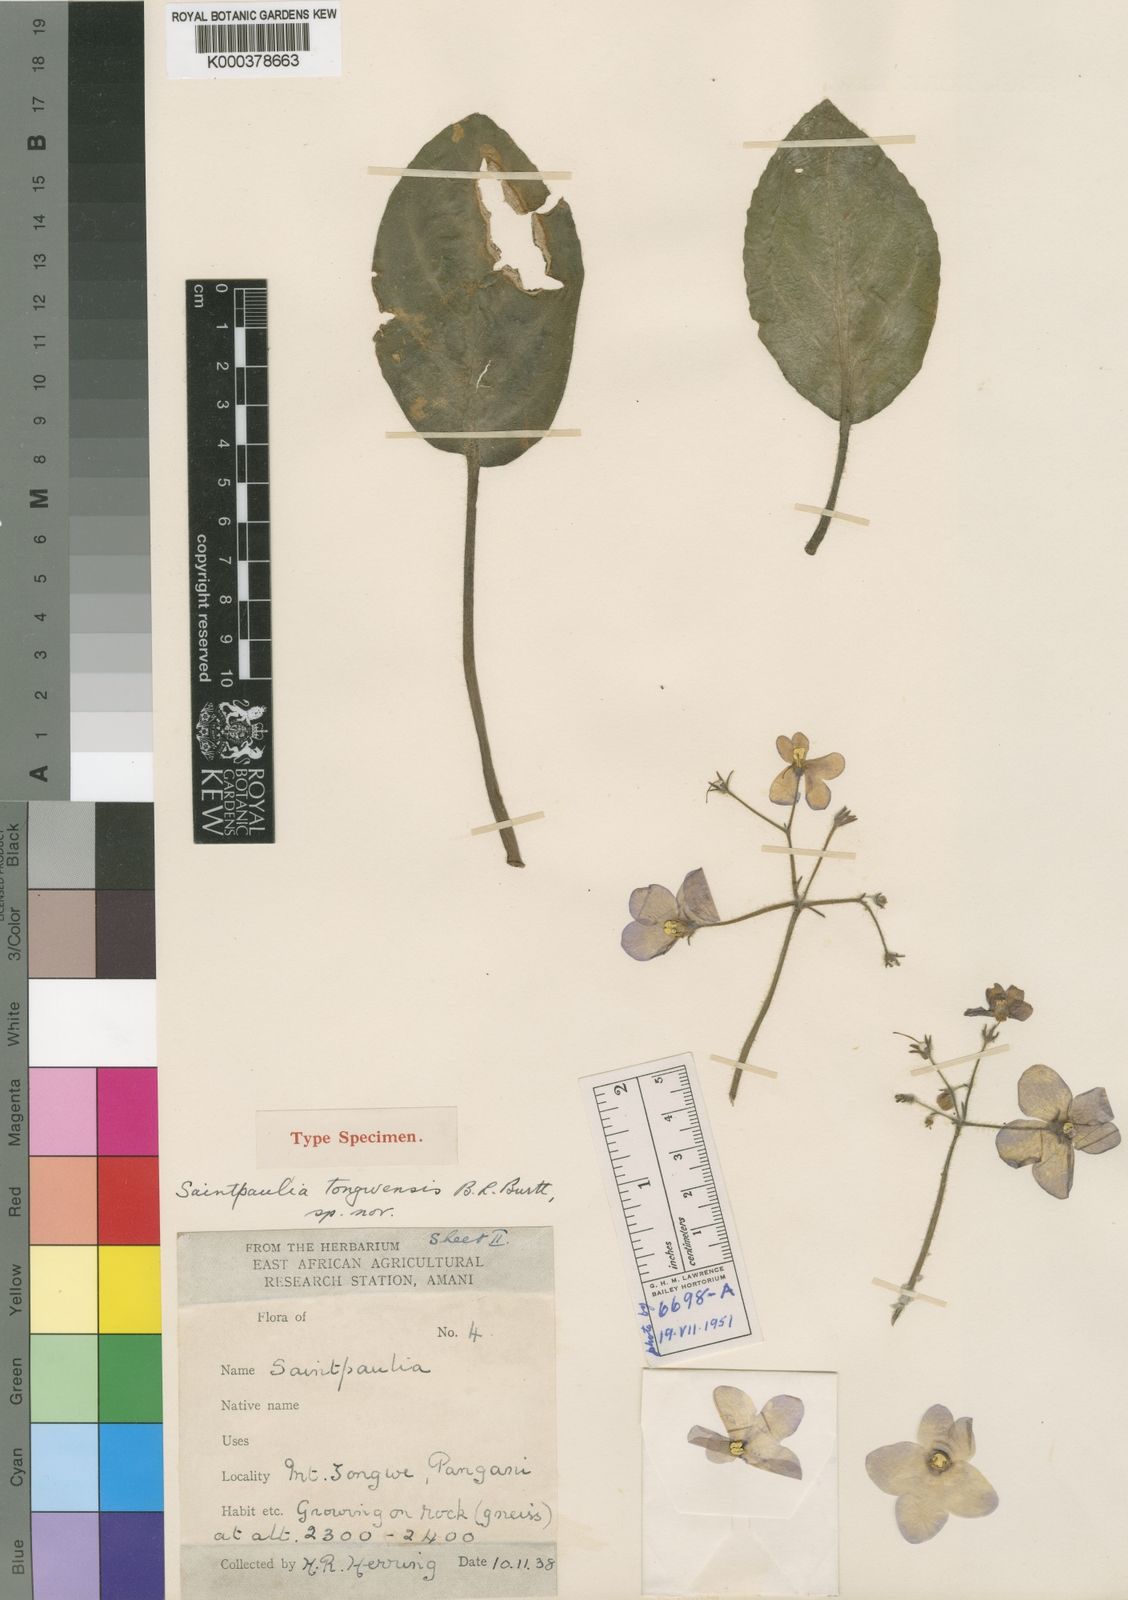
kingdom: Plantae
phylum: Tracheophyta
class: Magnoliopsida
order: Lamiales
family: Gesneriaceae
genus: Streptocarpus
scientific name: Streptocarpus ionanthus
